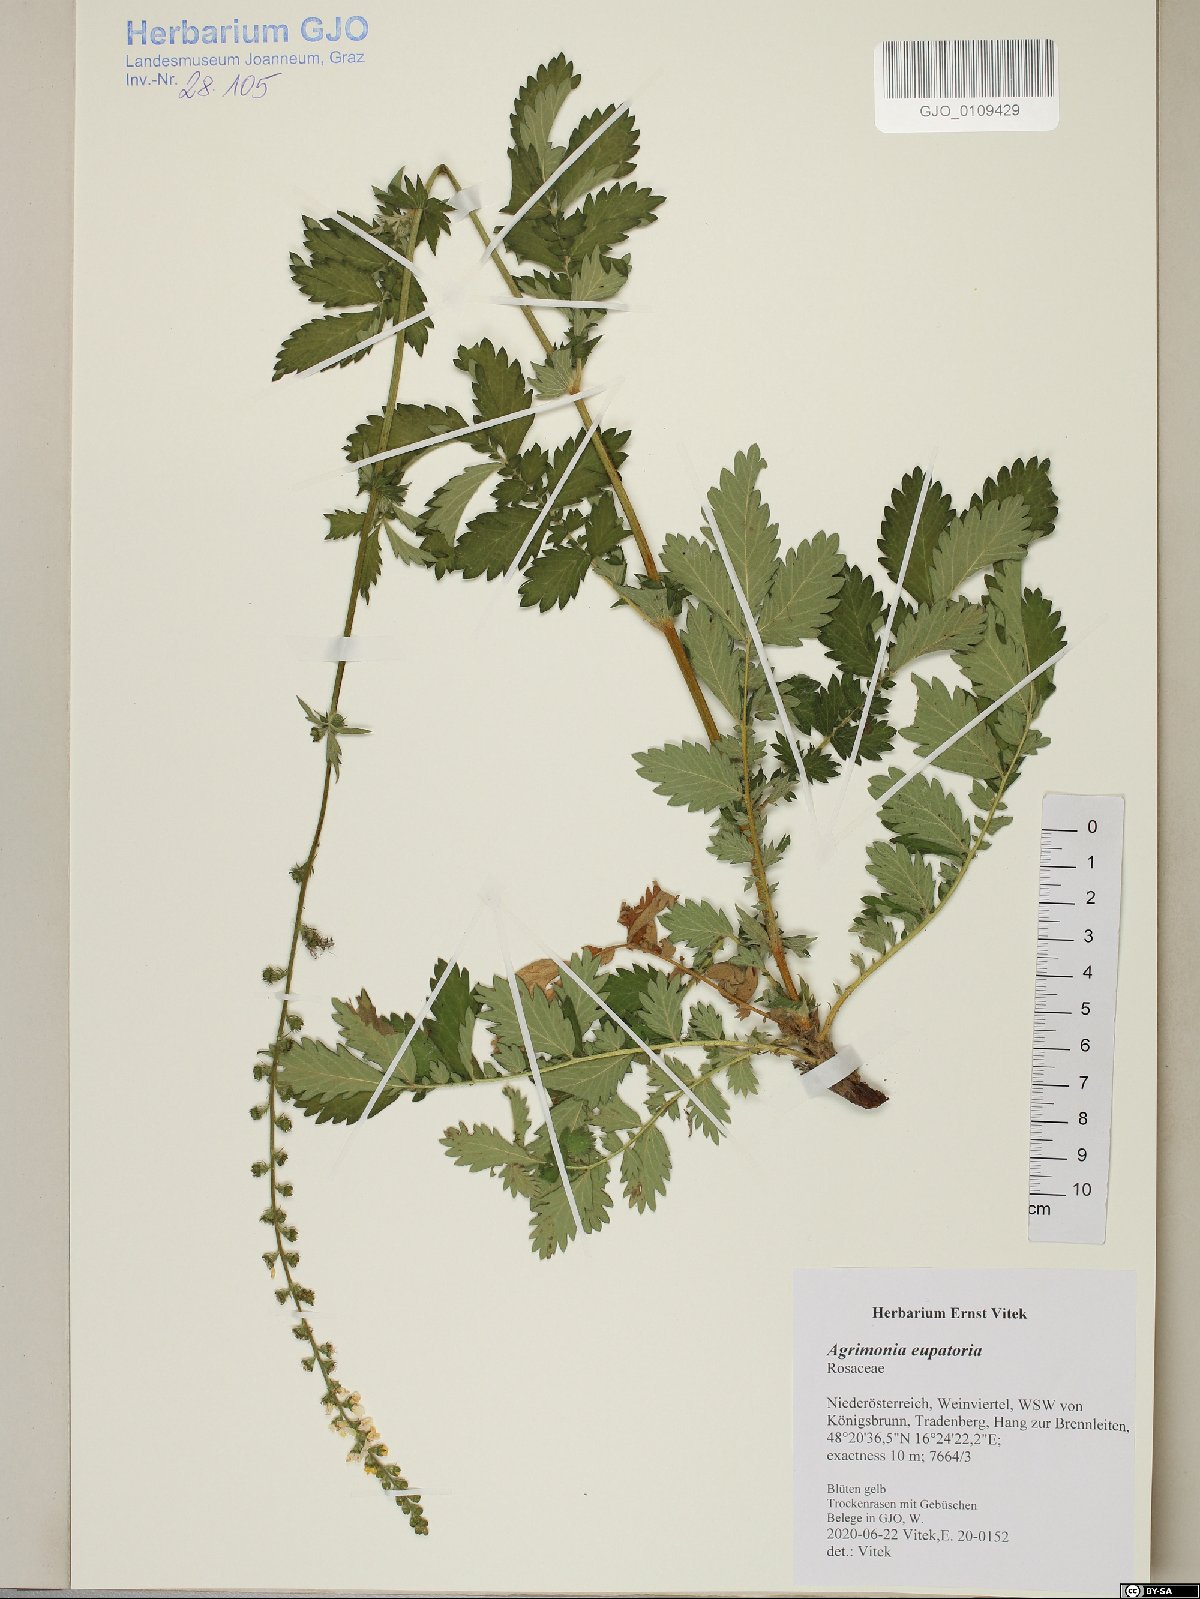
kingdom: Plantae
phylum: Tracheophyta
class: Magnoliopsida
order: Rosales
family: Rosaceae
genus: Agrimonia
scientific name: Agrimonia eupatoria
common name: Agrimony
